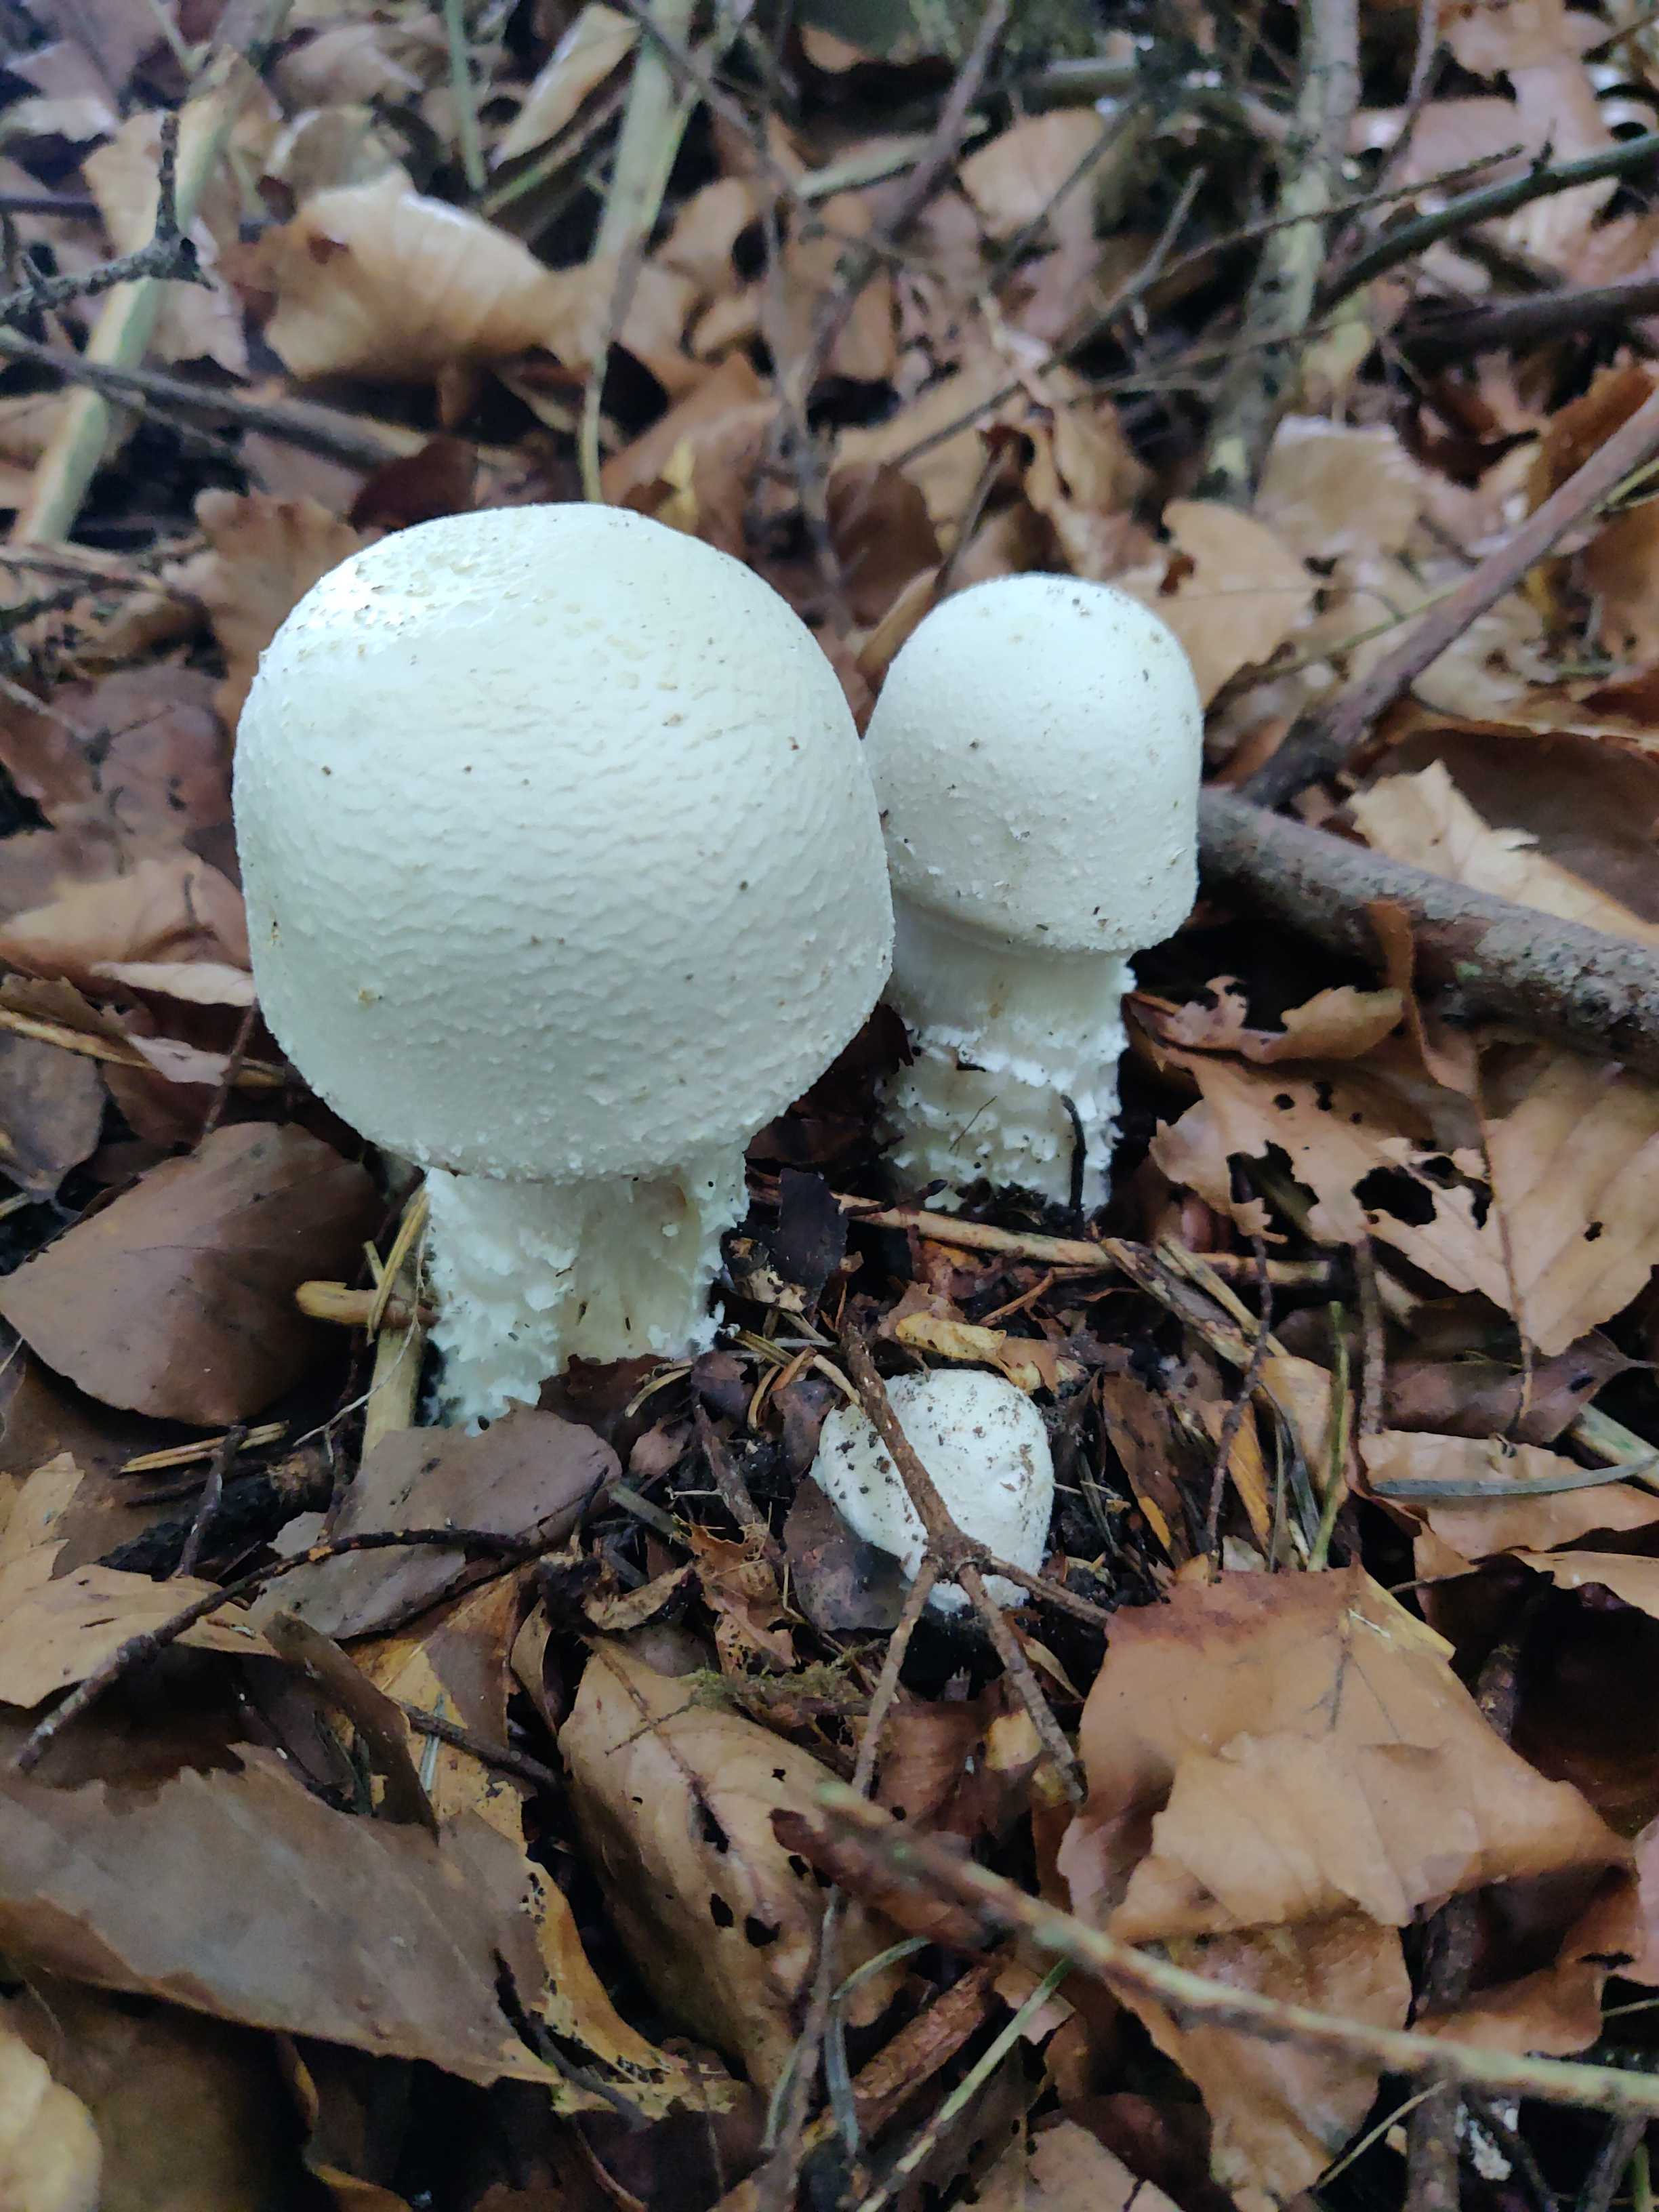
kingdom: Fungi
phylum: Basidiomycota
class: Agaricomycetes
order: Agaricales
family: Agaricaceae
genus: Agaricus
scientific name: Agaricus
